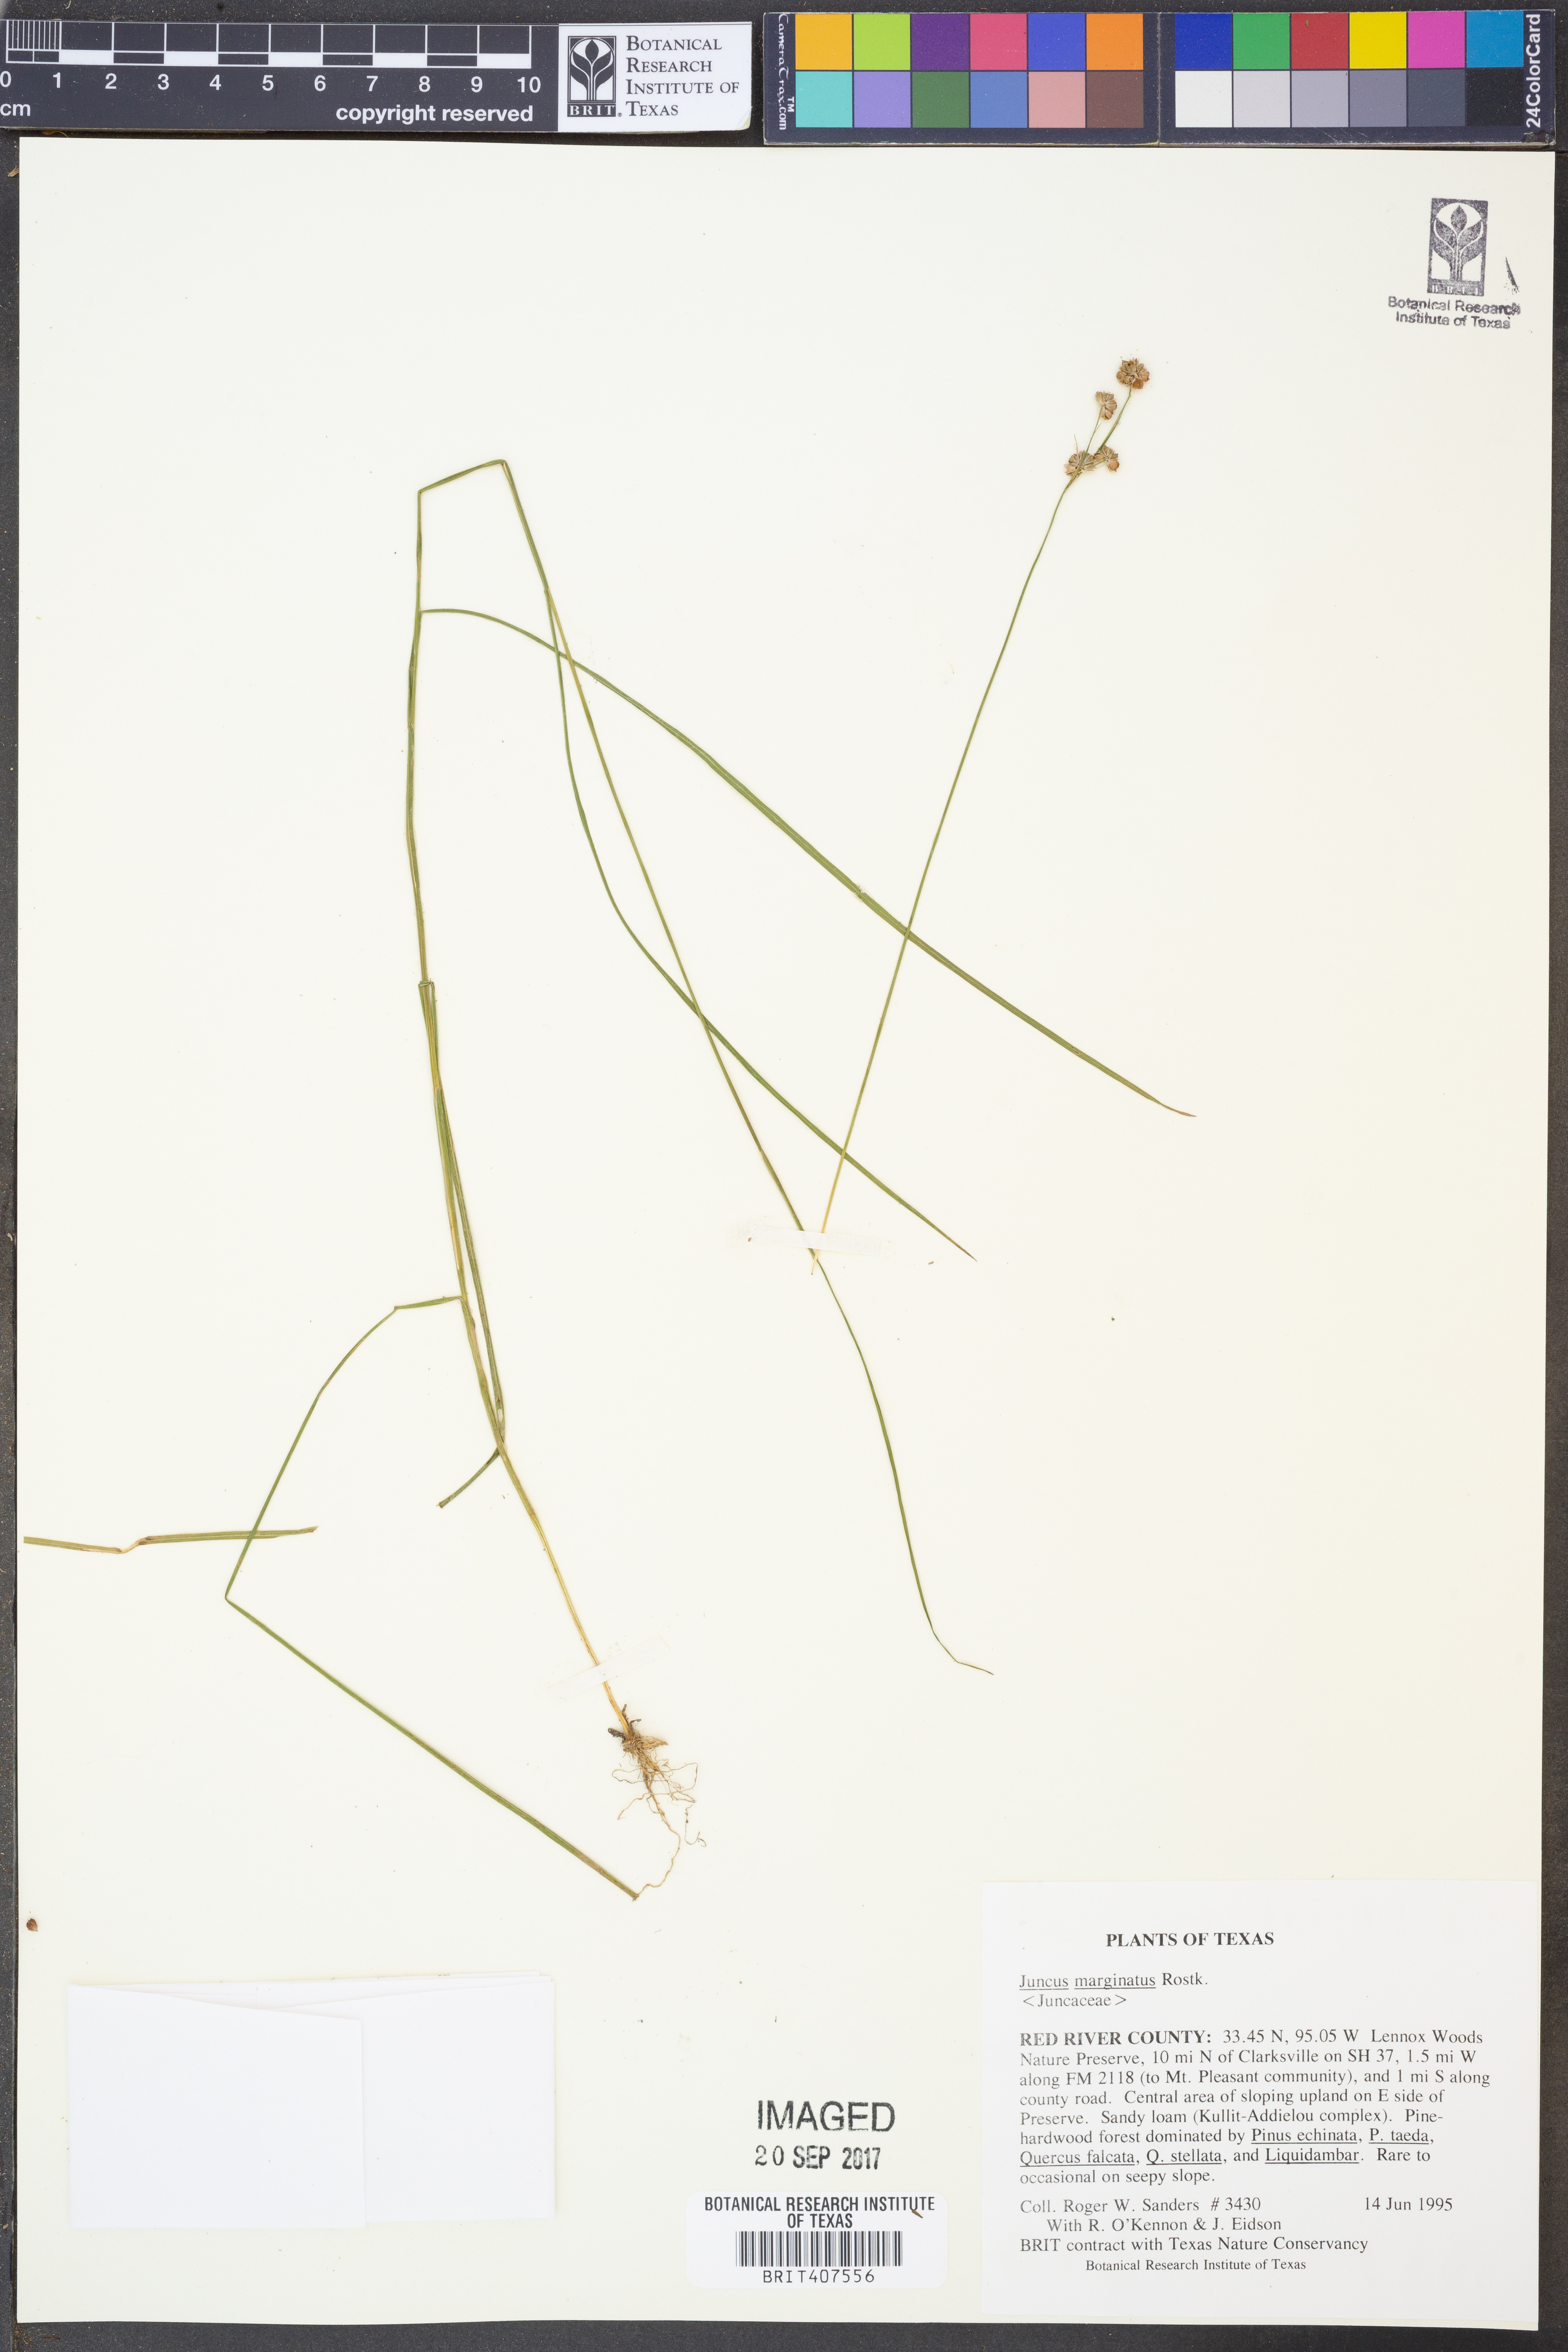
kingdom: Plantae
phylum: Tracheophyta
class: Liliopsida
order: Poales
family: Juncaceae
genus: Juncus
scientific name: Juncus marginatus
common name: Grass-leaf rush
